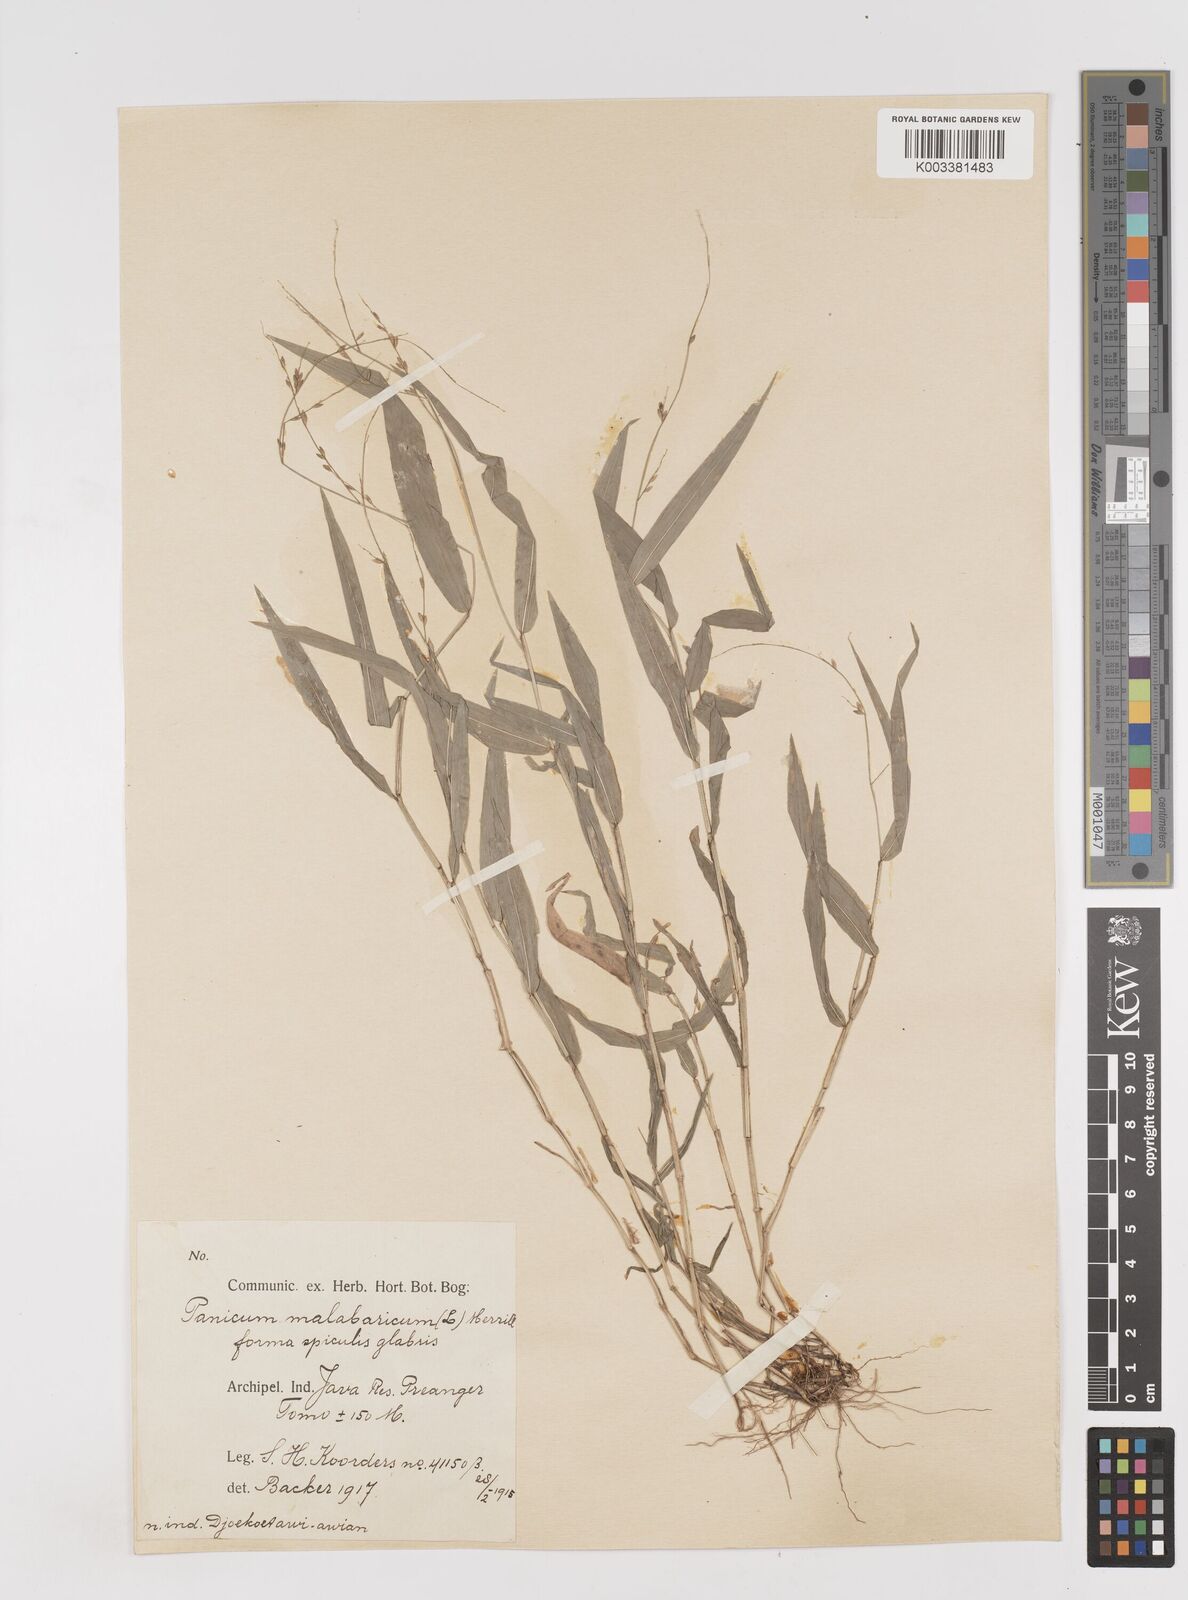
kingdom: Plantae
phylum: Tracheophyta
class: Liliopsida
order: Poales
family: Poaceae
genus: Ottochloa
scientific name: Ottochloa nodosa
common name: Slender-panic grass
